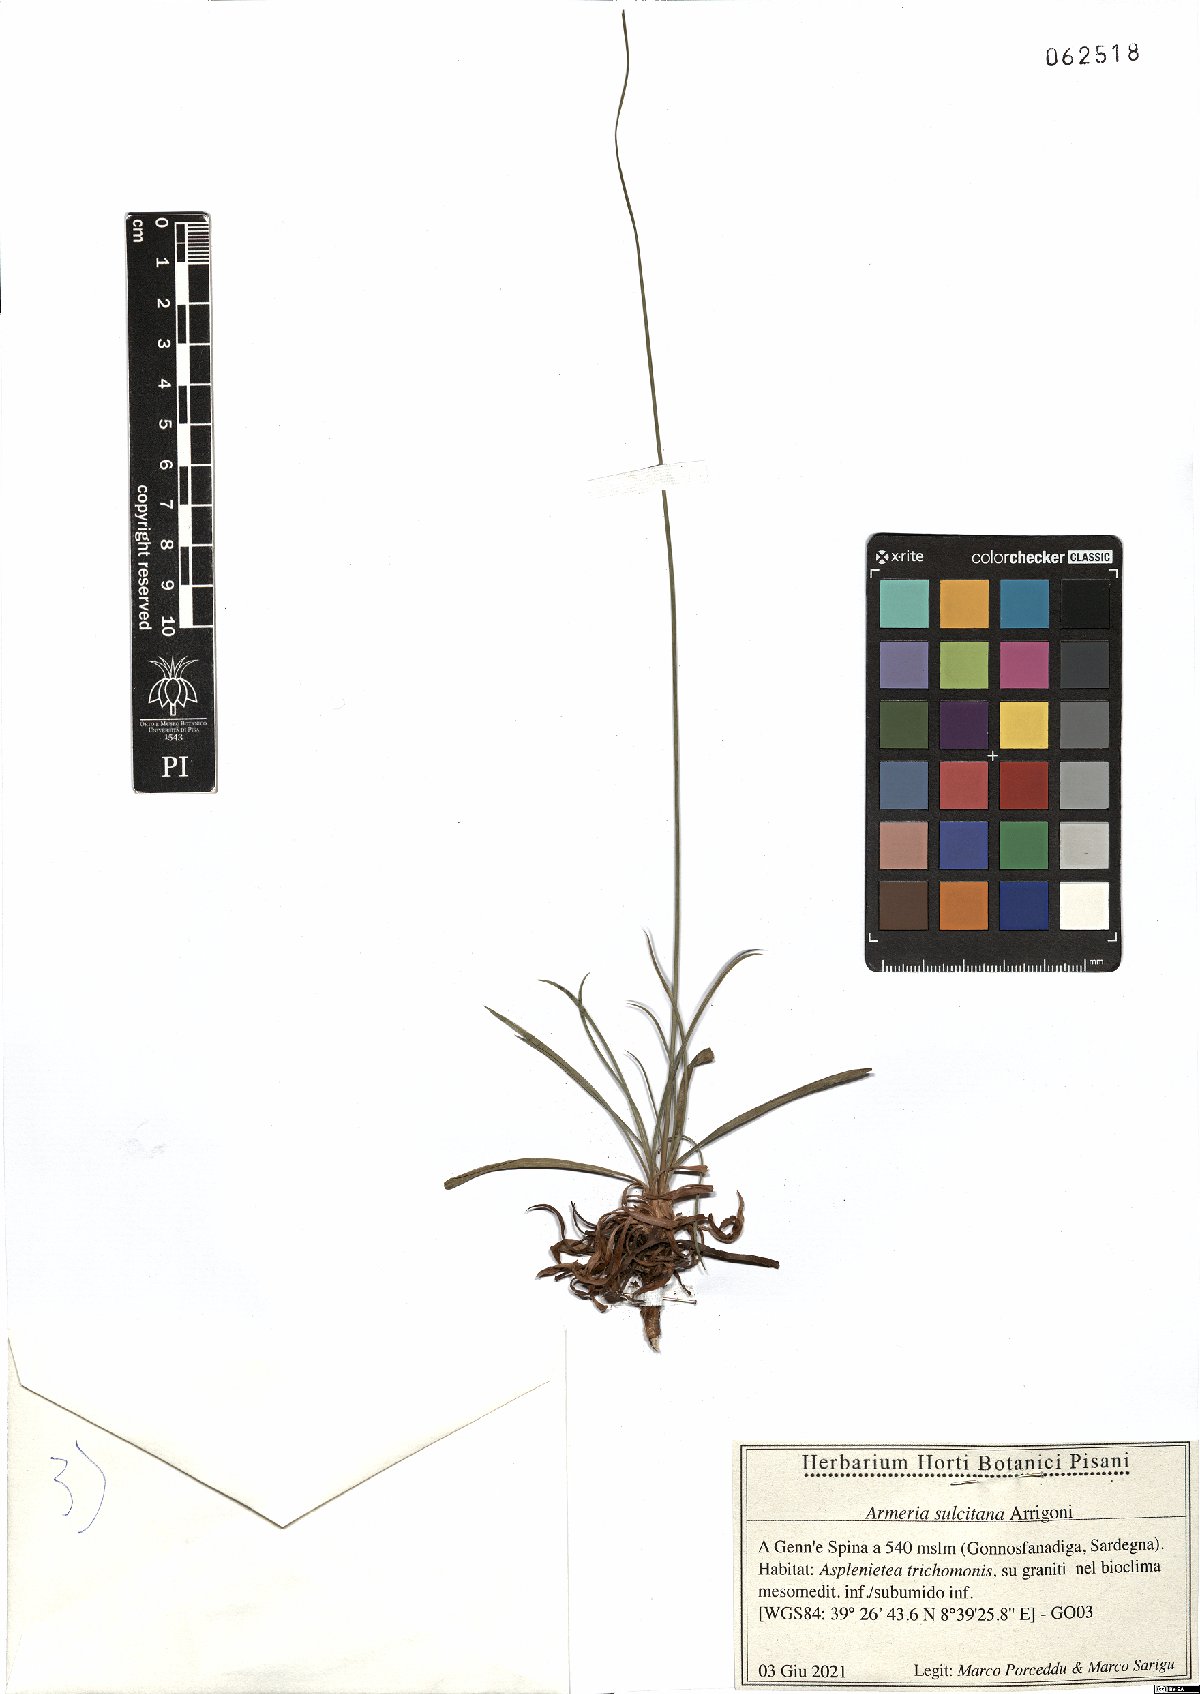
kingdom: Plantae
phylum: Tracheophyta
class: Magnoliopsida
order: Caryophyllales
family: Plumbaginaceae
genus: Armeria
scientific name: Armeria sulcitana
